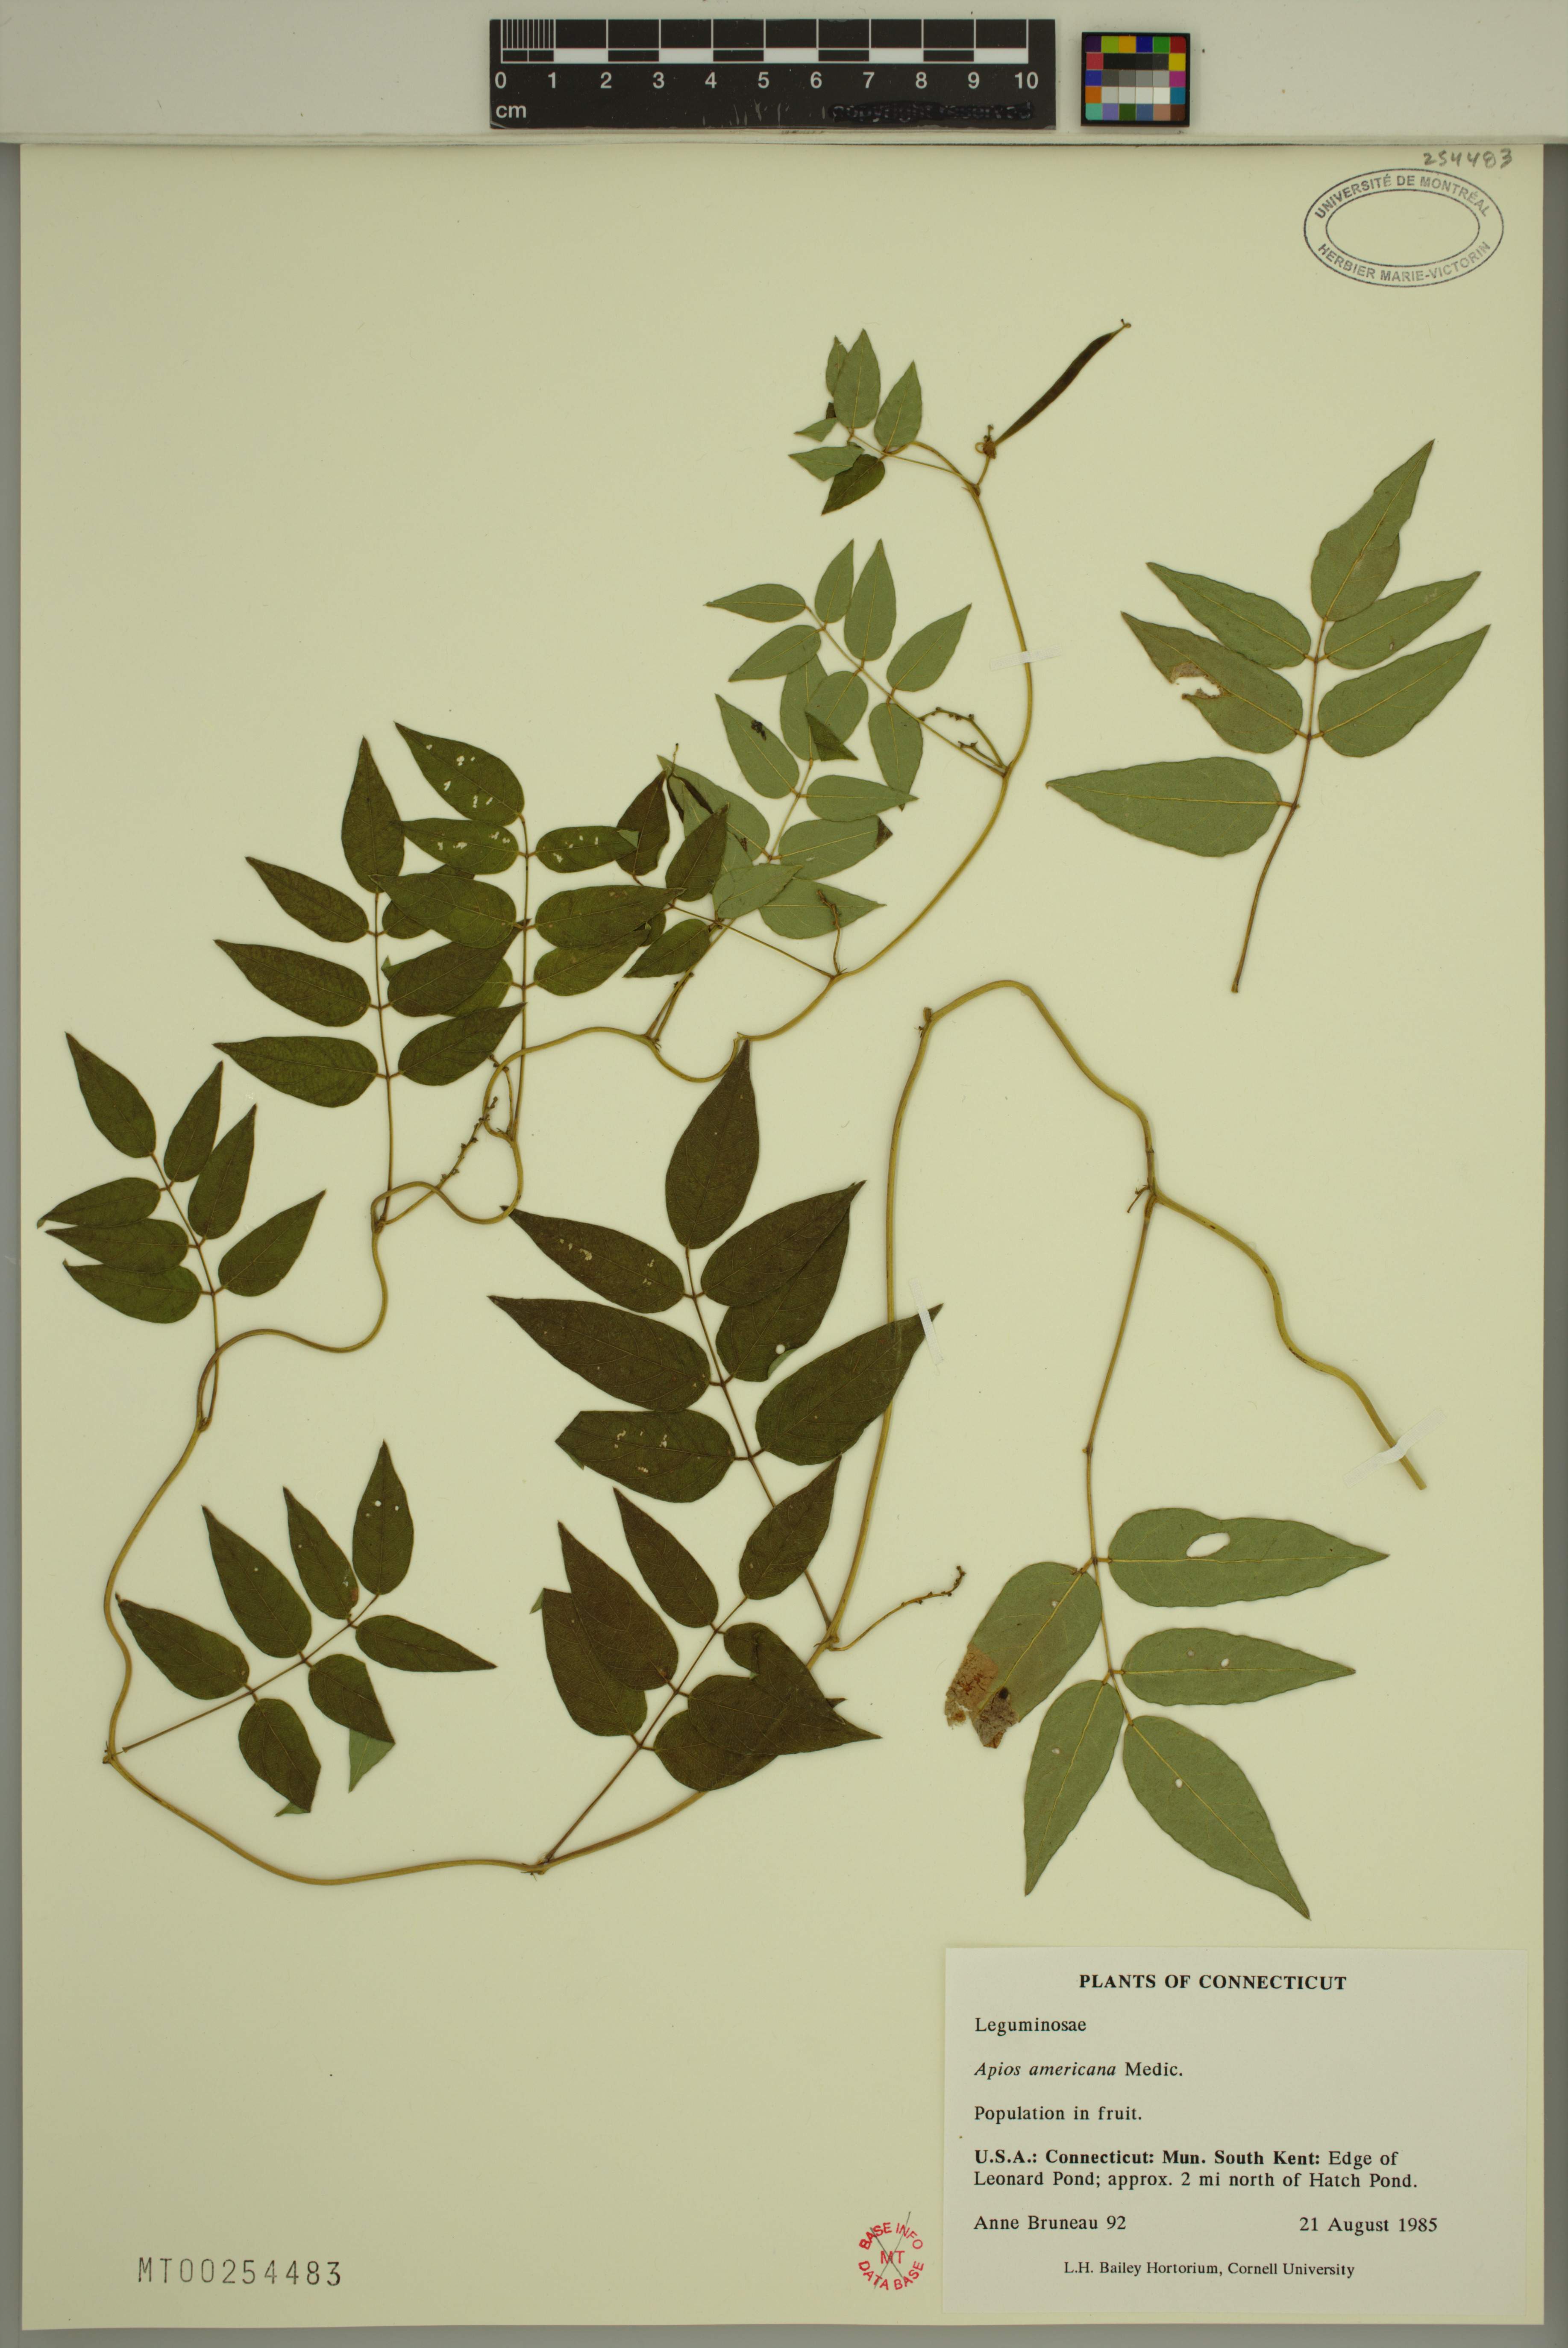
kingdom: Plantae
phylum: Tracheophyta
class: Magnoliopsida
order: Fabales
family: Fabaceae
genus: Apios
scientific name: Apios americana
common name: American potato-bean
